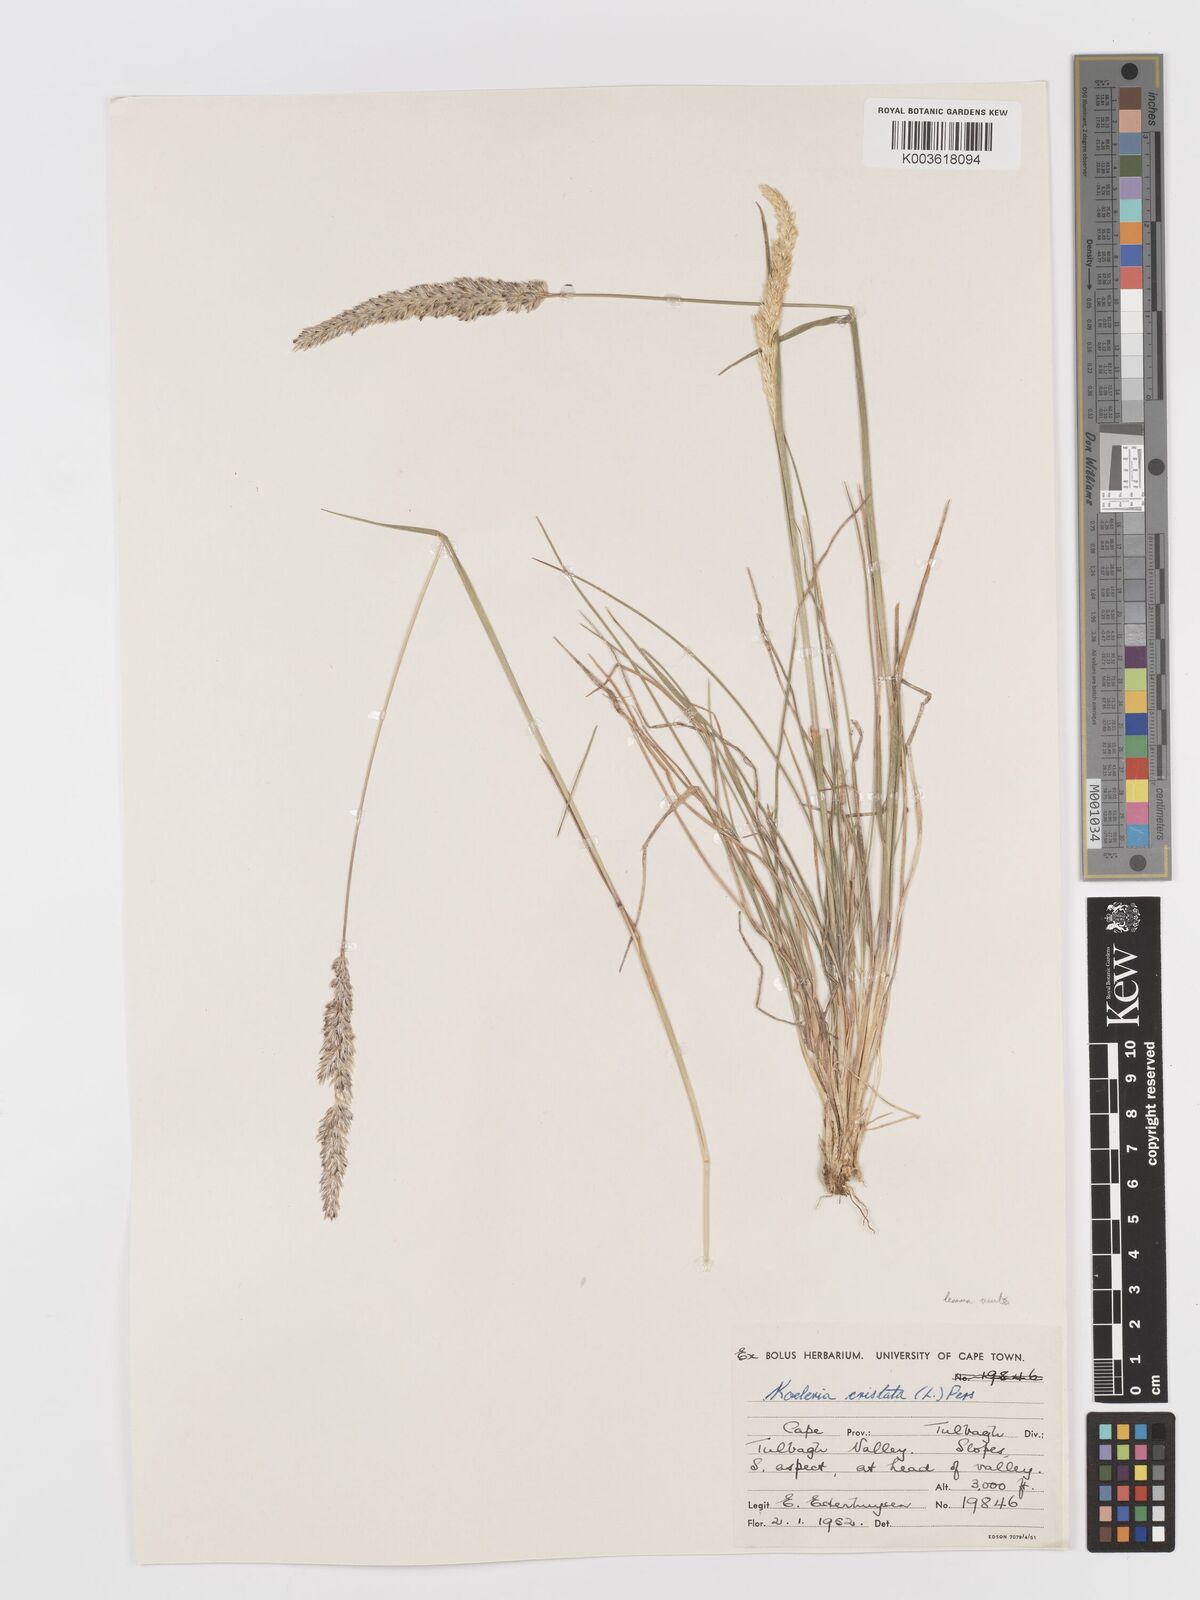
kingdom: Plantae
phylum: Tracheophyta
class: Liliopsida
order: Poales
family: Poaceae
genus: Koeleria
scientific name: Koeleria capensis
